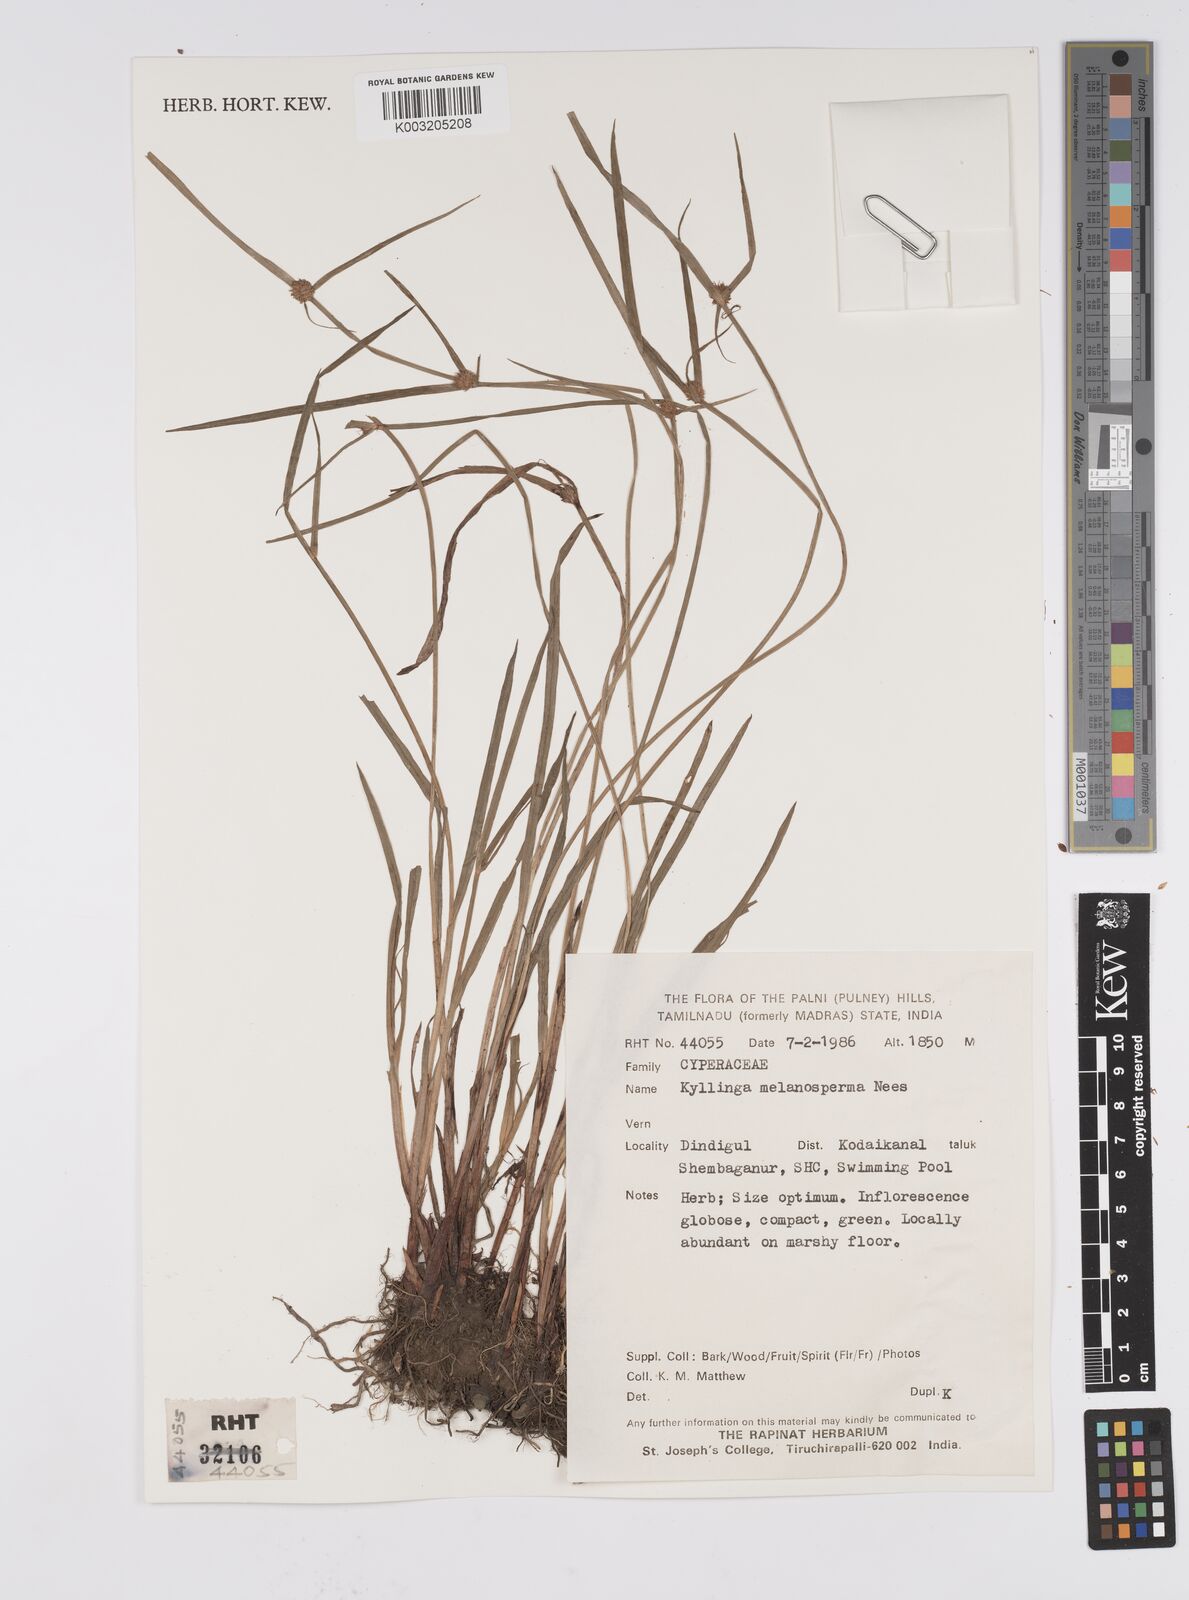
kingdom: Plantae
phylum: Tracheophyta
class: Liliopsida
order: Poales
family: Cyperaceae
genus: Cyperus
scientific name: Cyperus melanospermus
